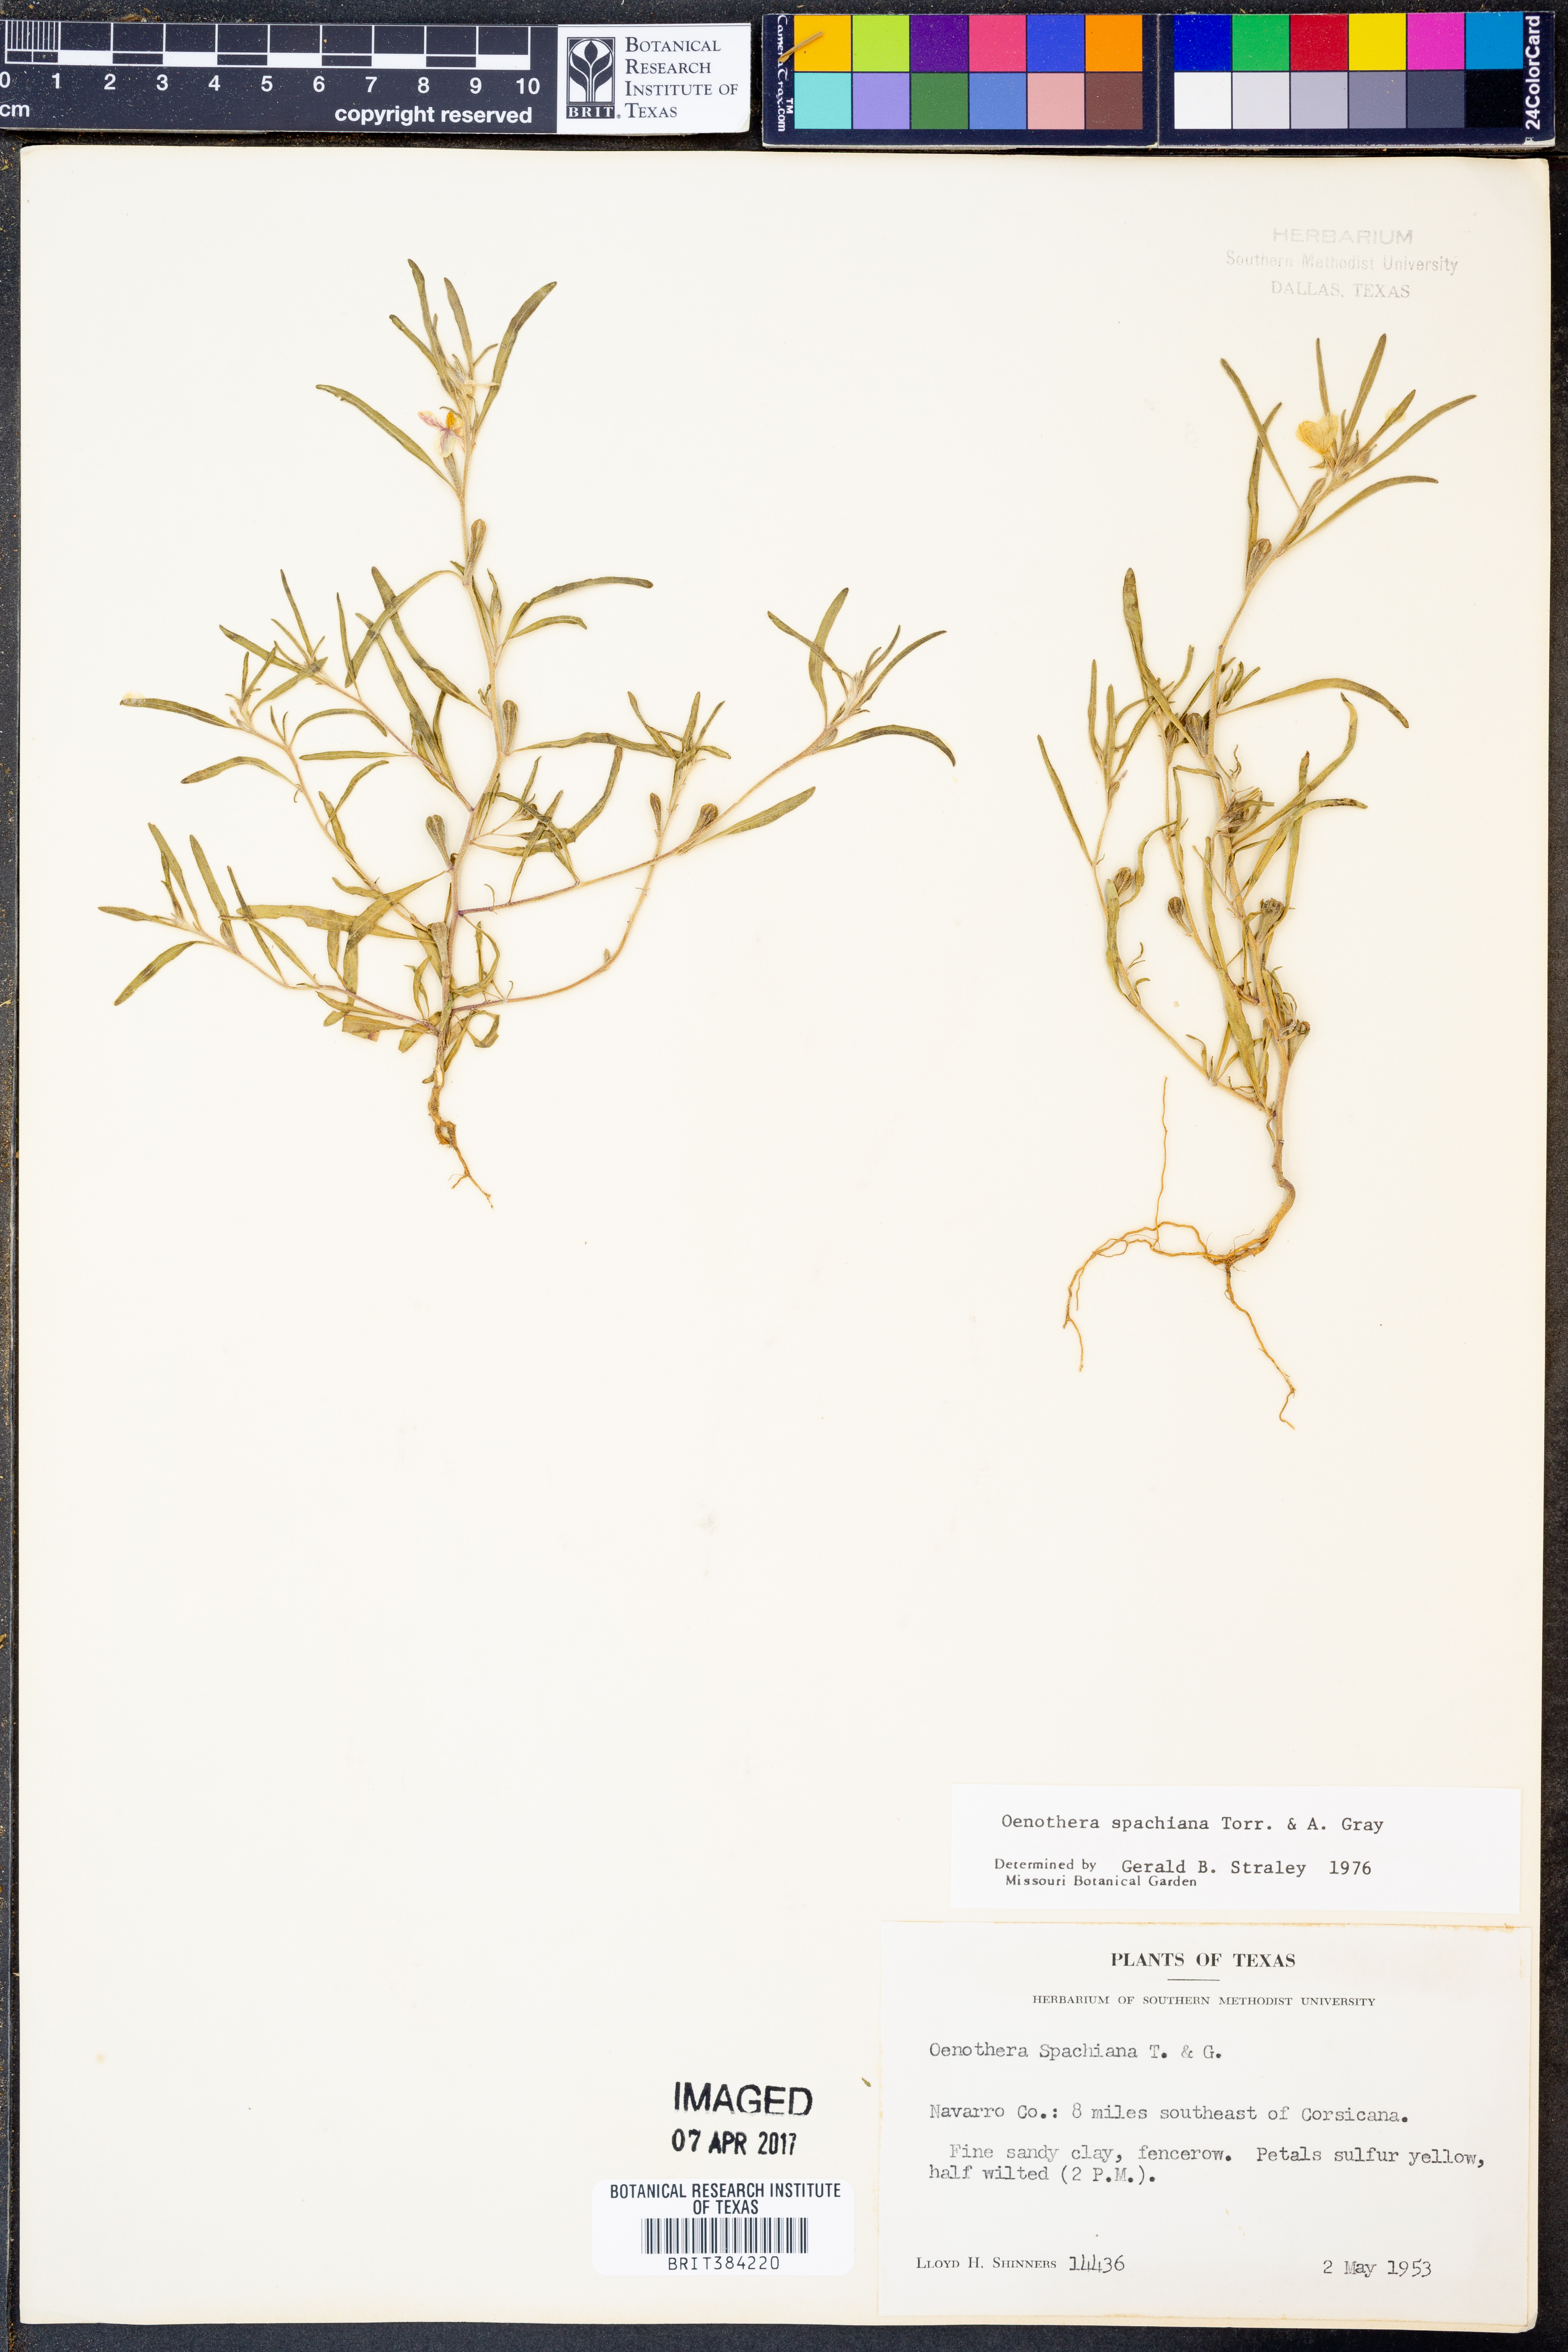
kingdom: Plantae
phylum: Tracheophyta
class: Magnoliopsida
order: Myrtales
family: Onagraceae
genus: Oenothera
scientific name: Oenothera spachiana
